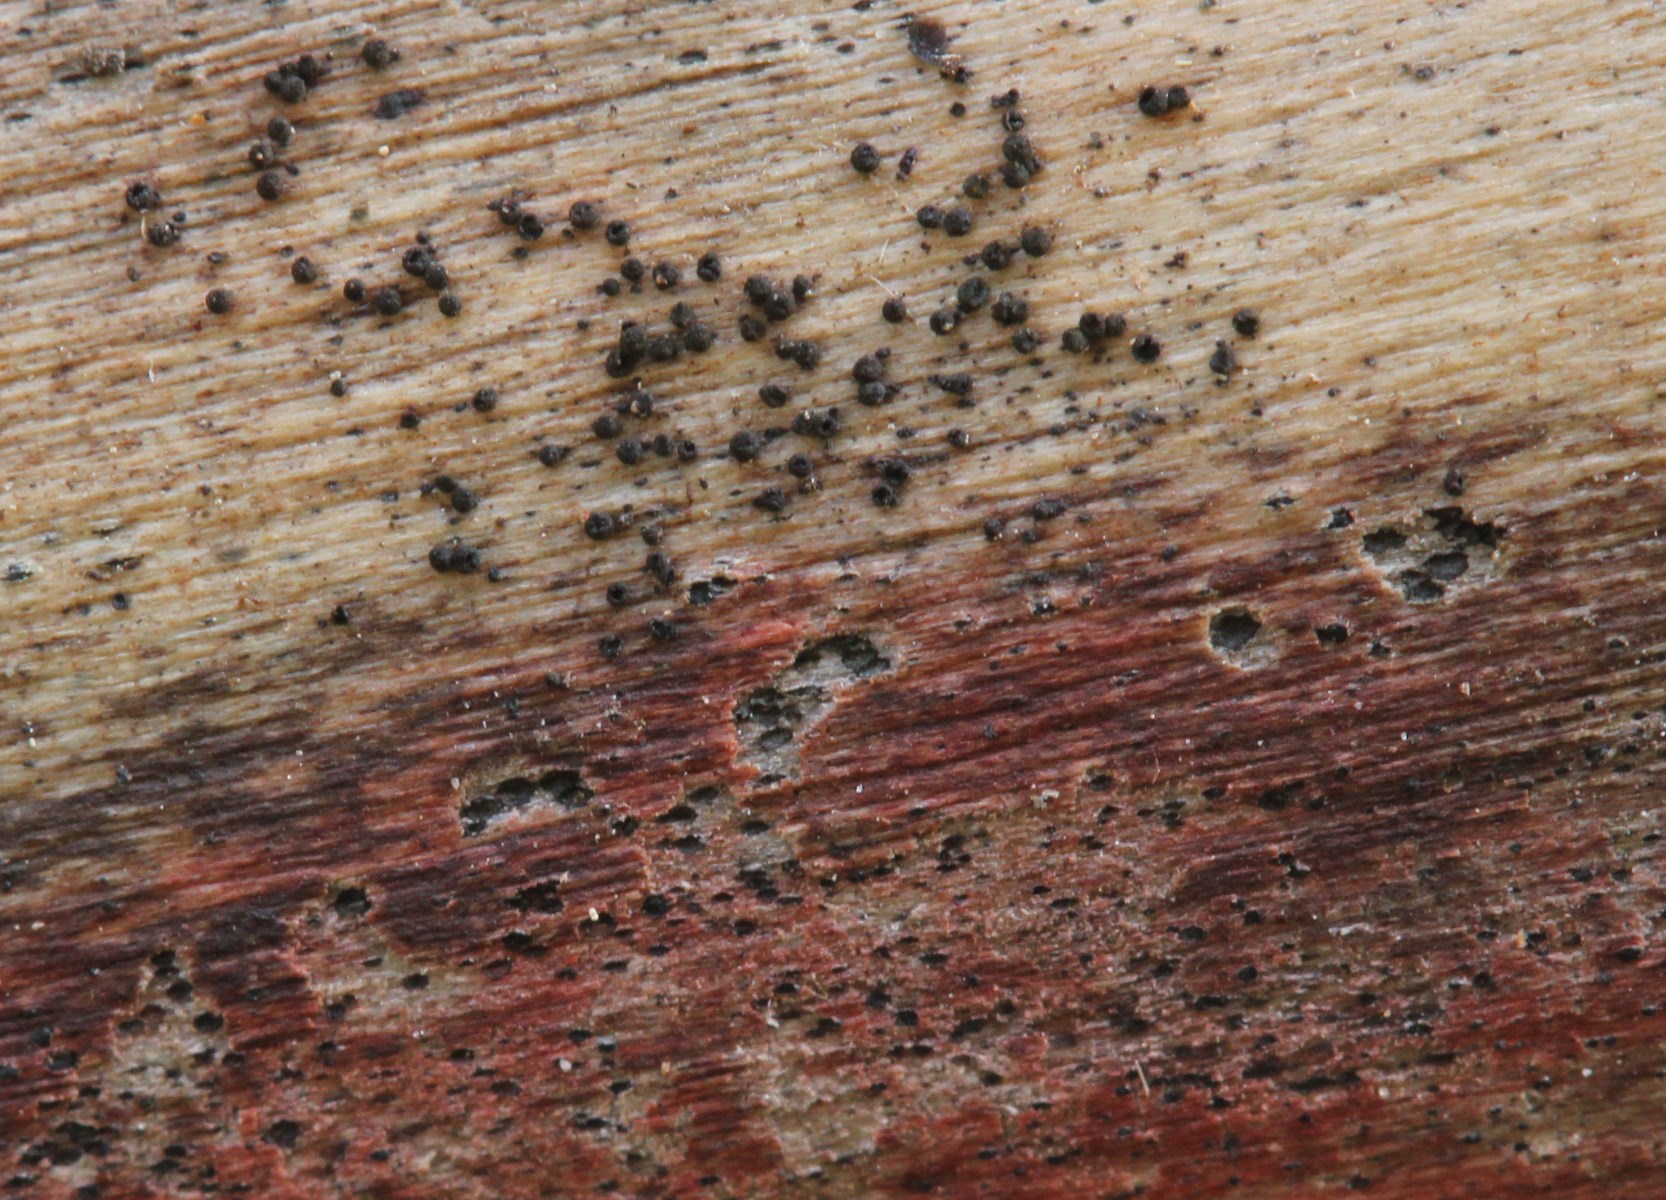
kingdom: Fungi
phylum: Ascomycota
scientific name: Ascomycota
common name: sæksvampe
